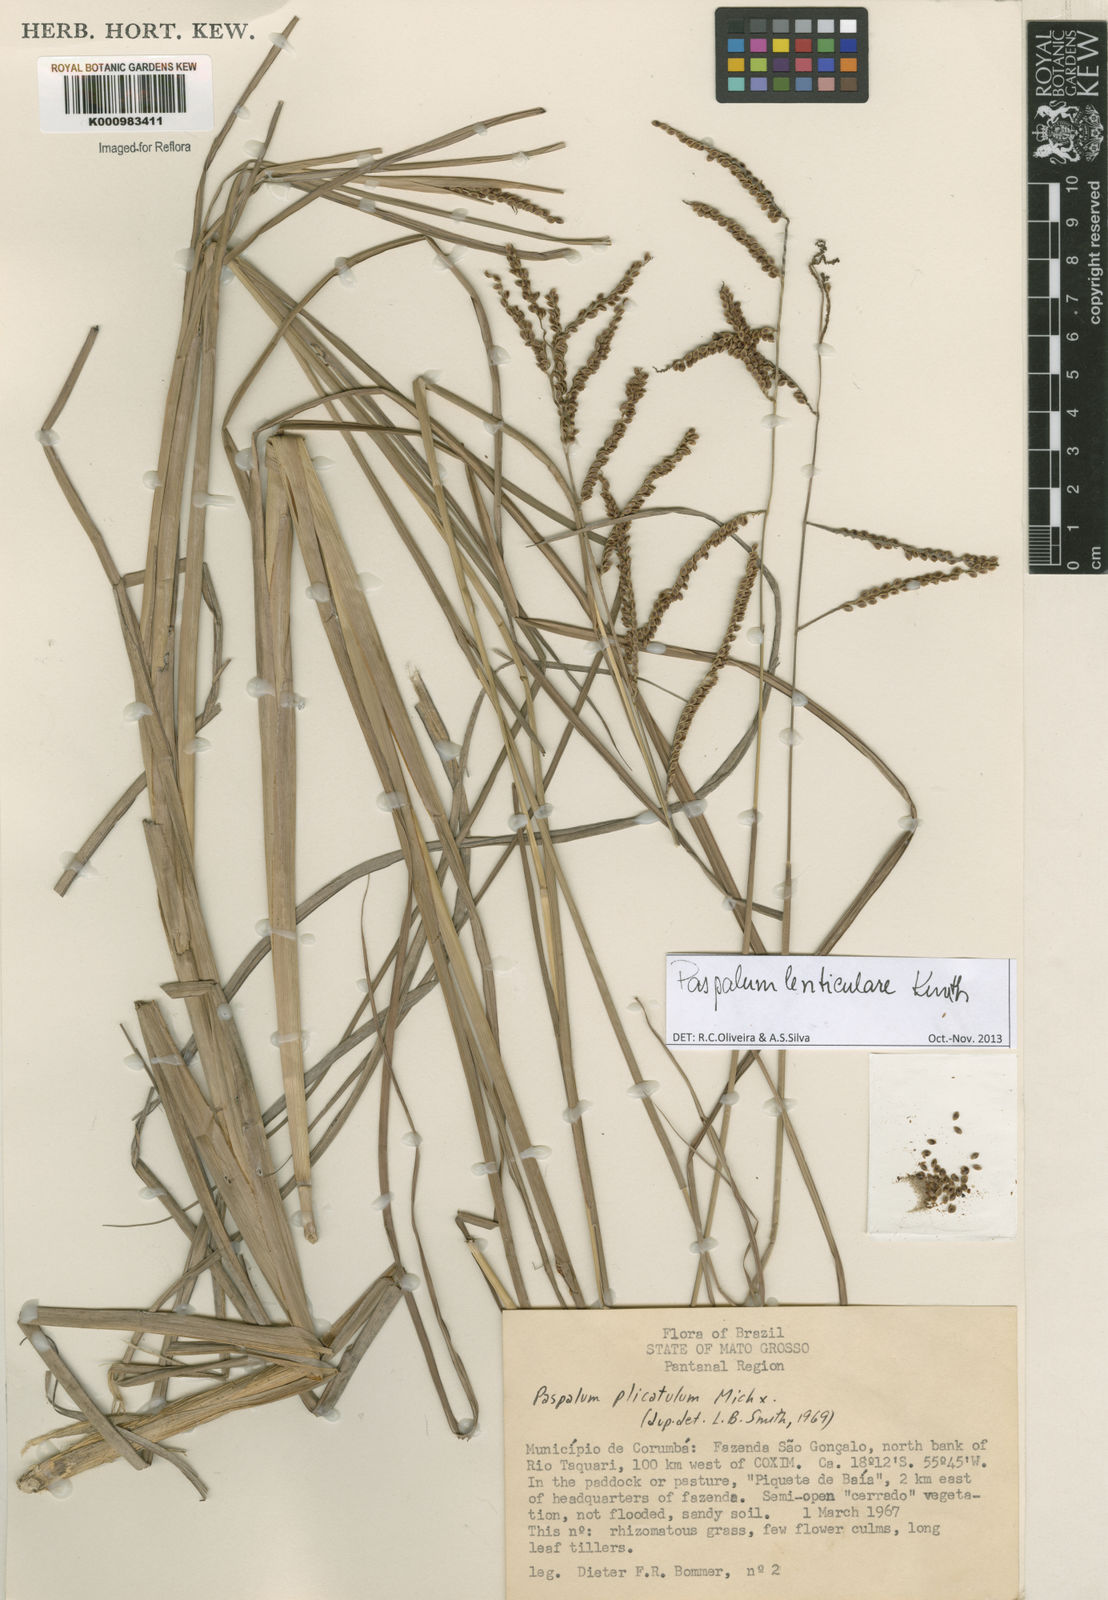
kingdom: Plantae
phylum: Tracheophyta
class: Liliopsida
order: Poales
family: Poaceae
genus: Paspalum
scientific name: Paspalum plicatulum
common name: Top paspalum
